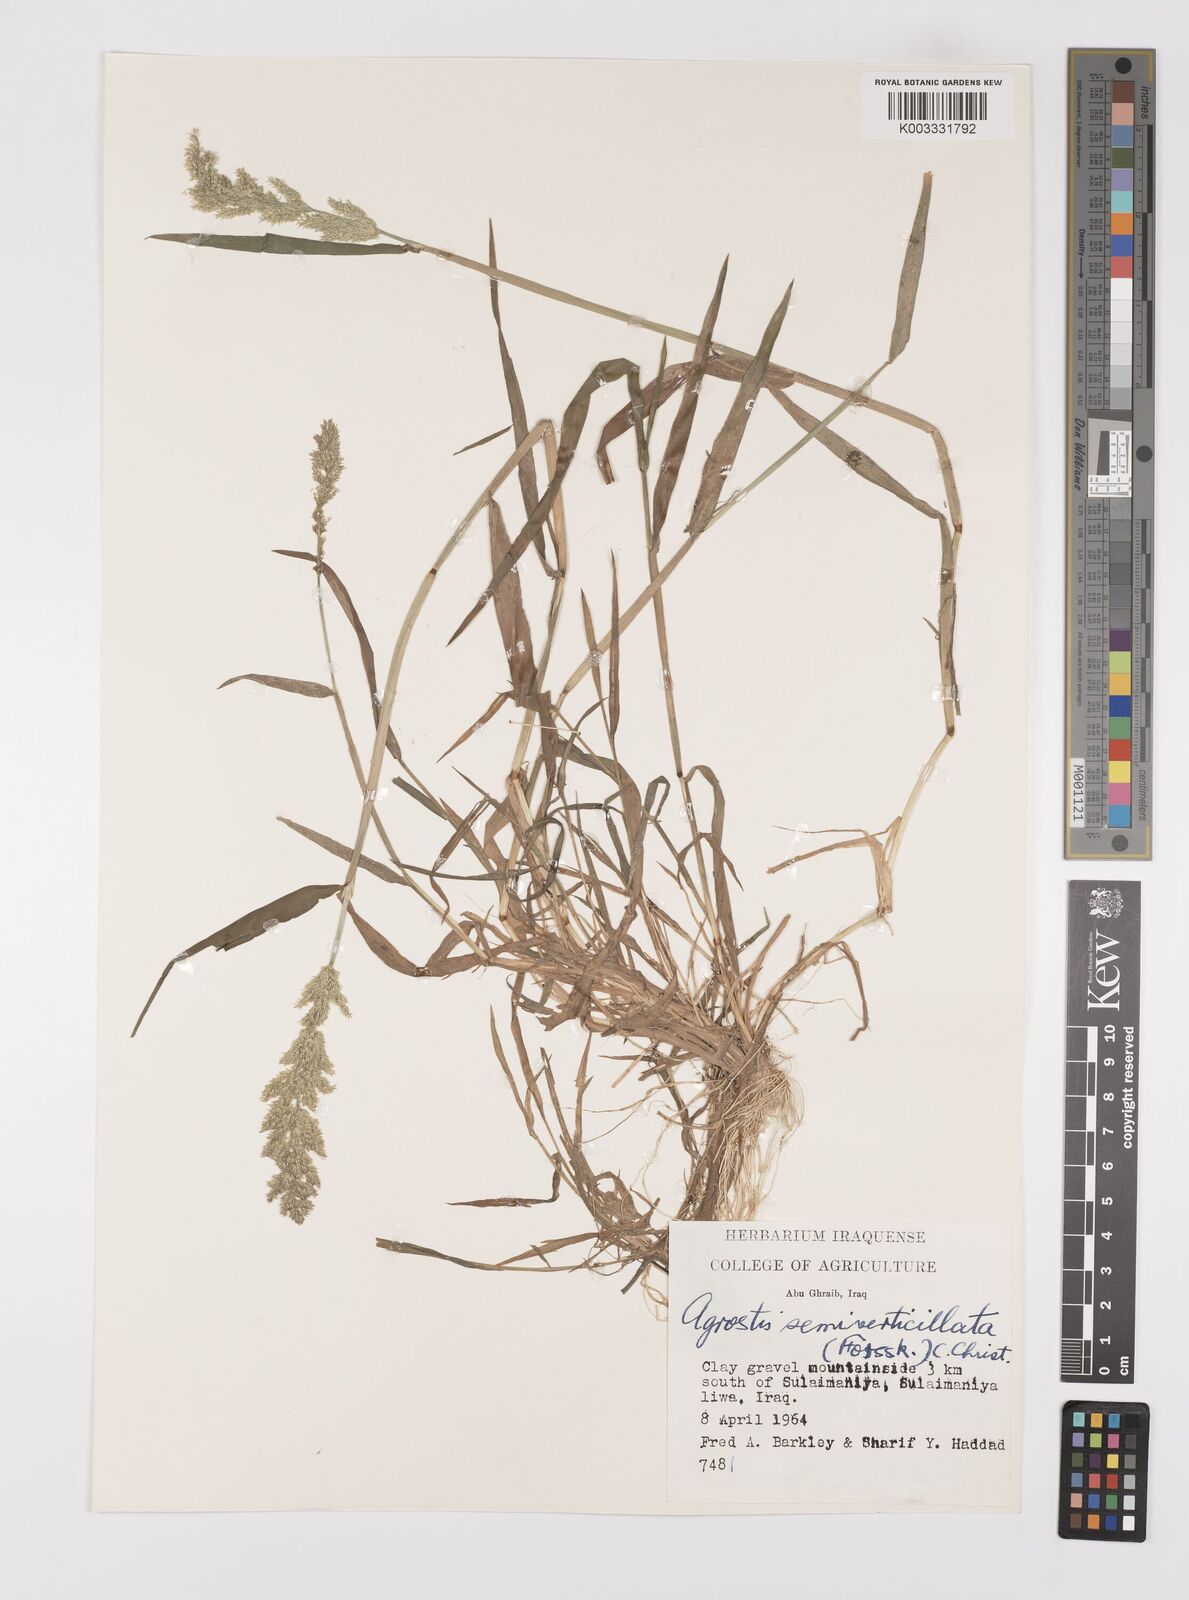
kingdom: Plantae
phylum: Tracheophyta
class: Liliopsida
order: Poales
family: Poaceae
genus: Polypogon
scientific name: Polypogon viridis
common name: Water bent
